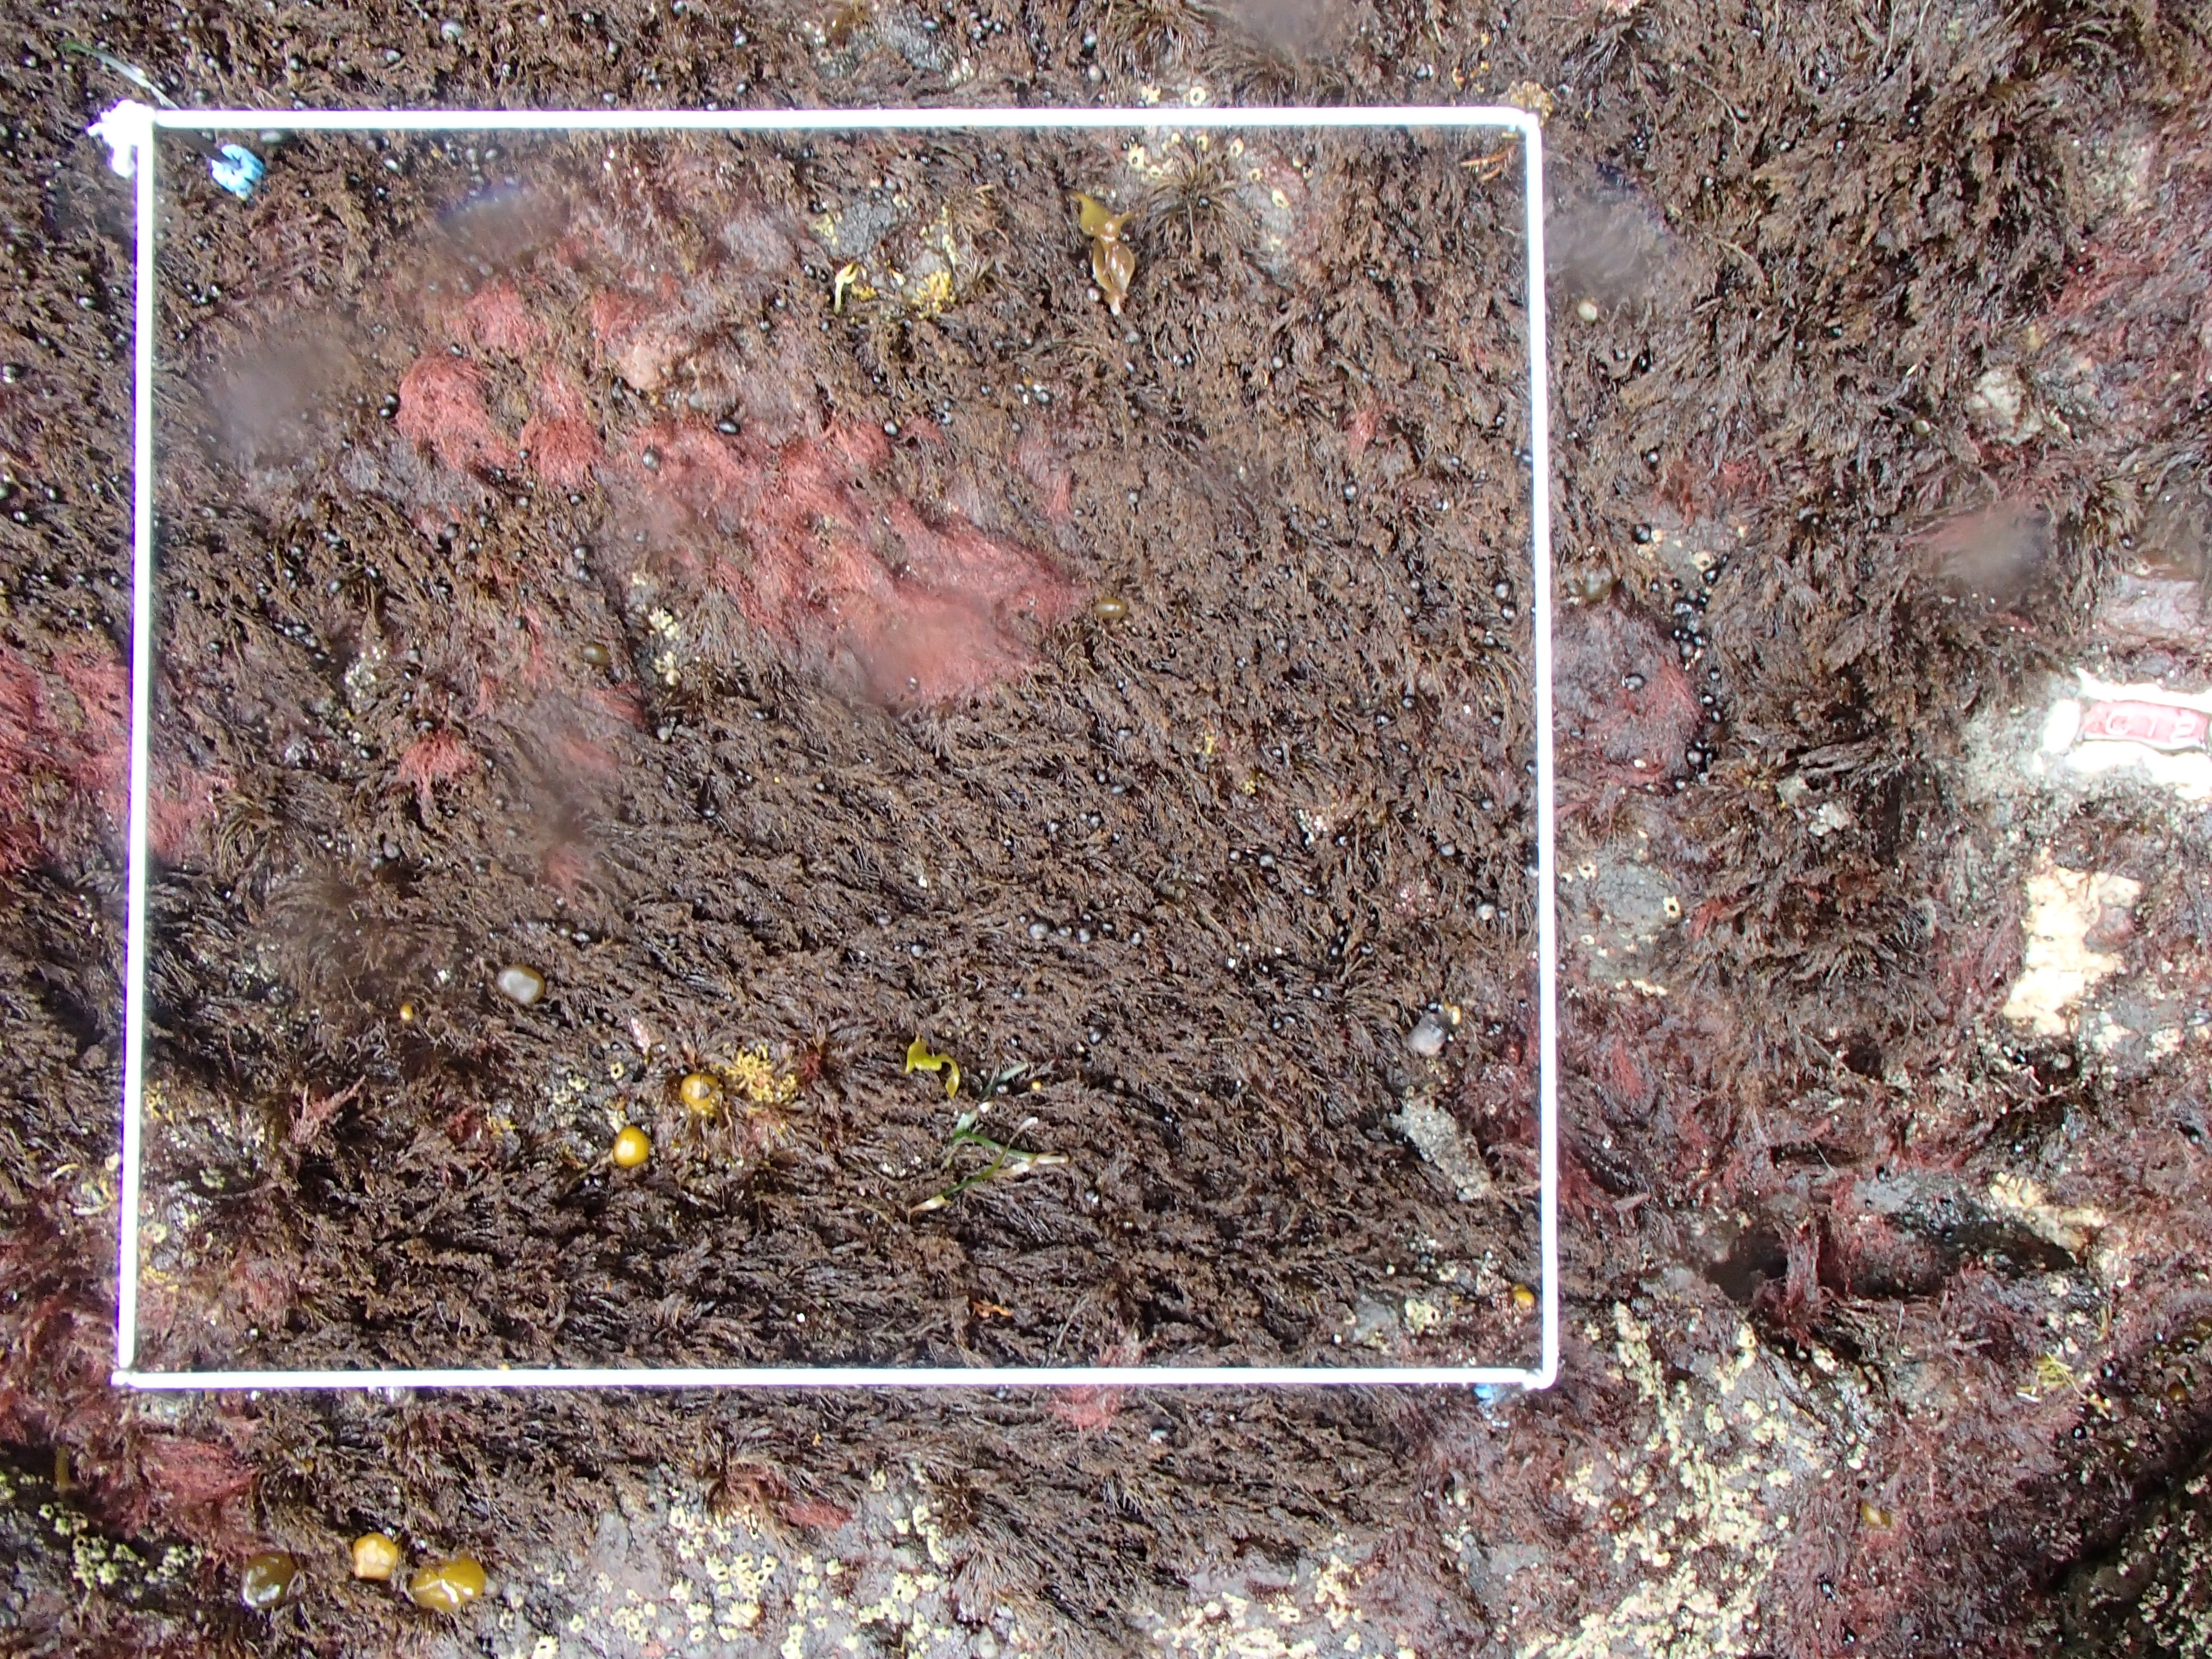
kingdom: Chromista
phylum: Ochrophyta
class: Phaeophyceae
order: Scytosiphonales
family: Scytosiphonaceae
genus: Analipus
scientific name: Analipus japonicus
